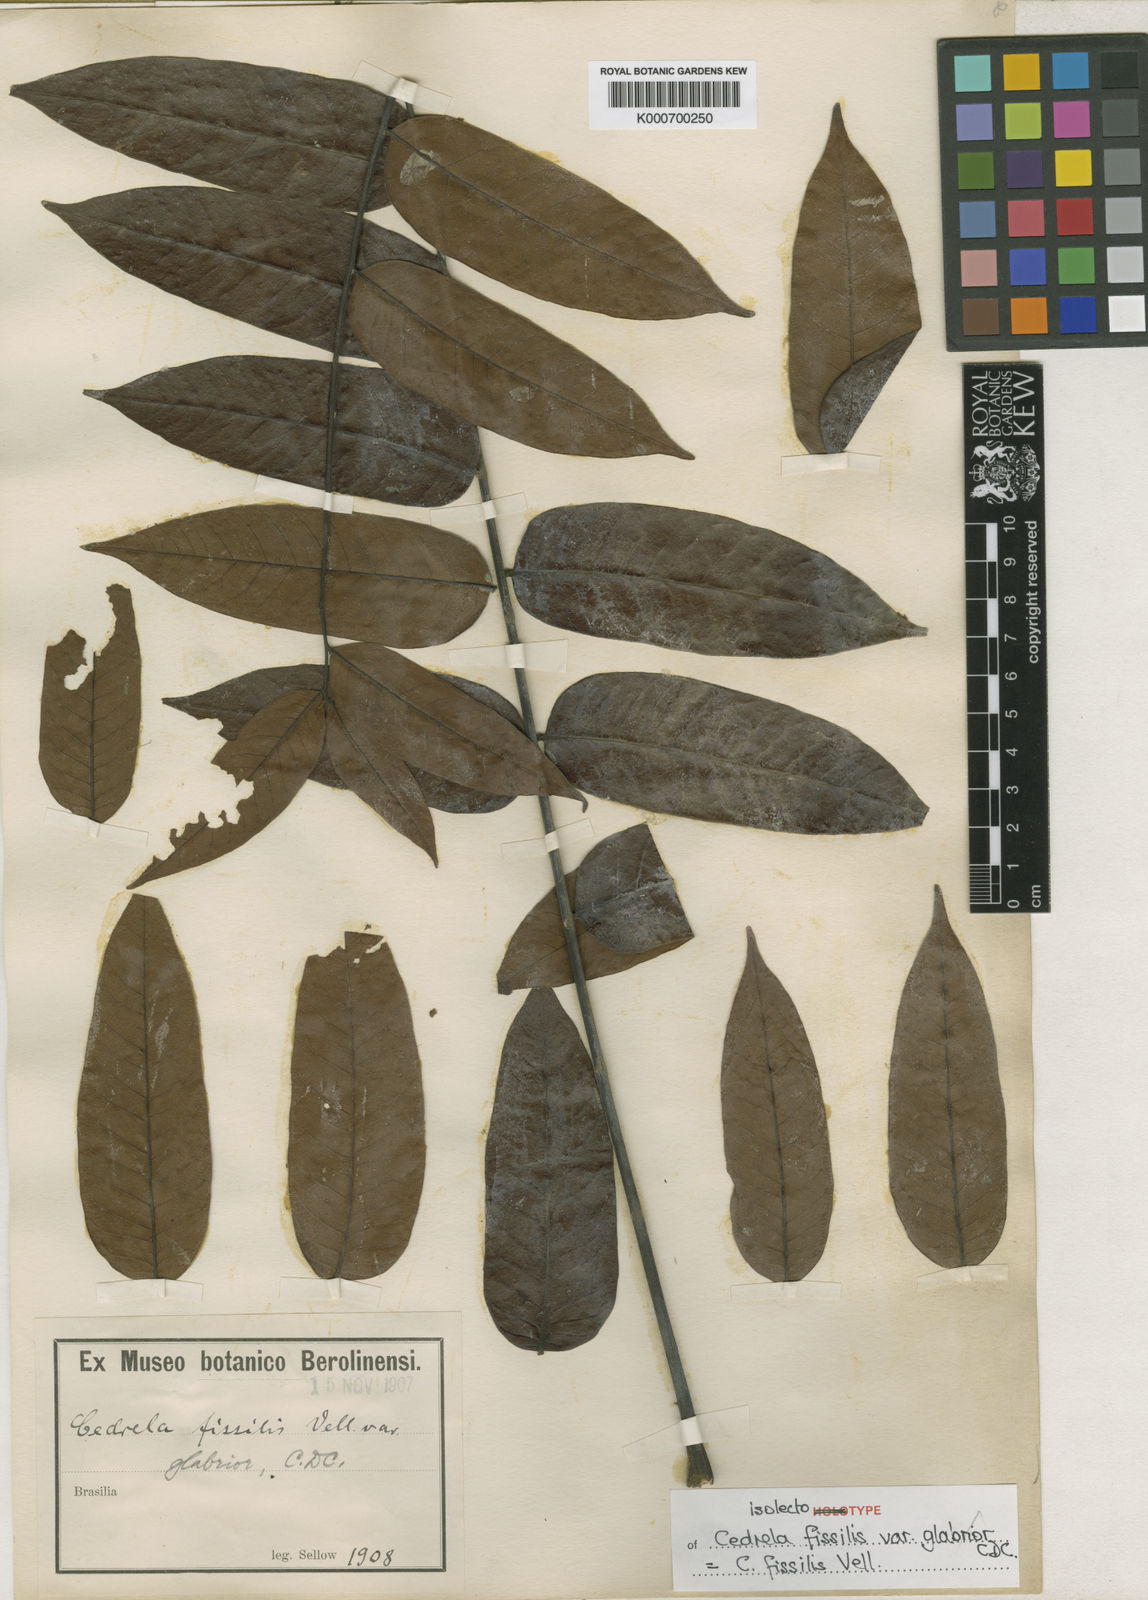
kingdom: Plantae
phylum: Tracheophyta
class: Magnoliopsida
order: Sapindales
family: Meliaceae
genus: Cedrela
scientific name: Cedrela fissilis
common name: Argentine cedar
